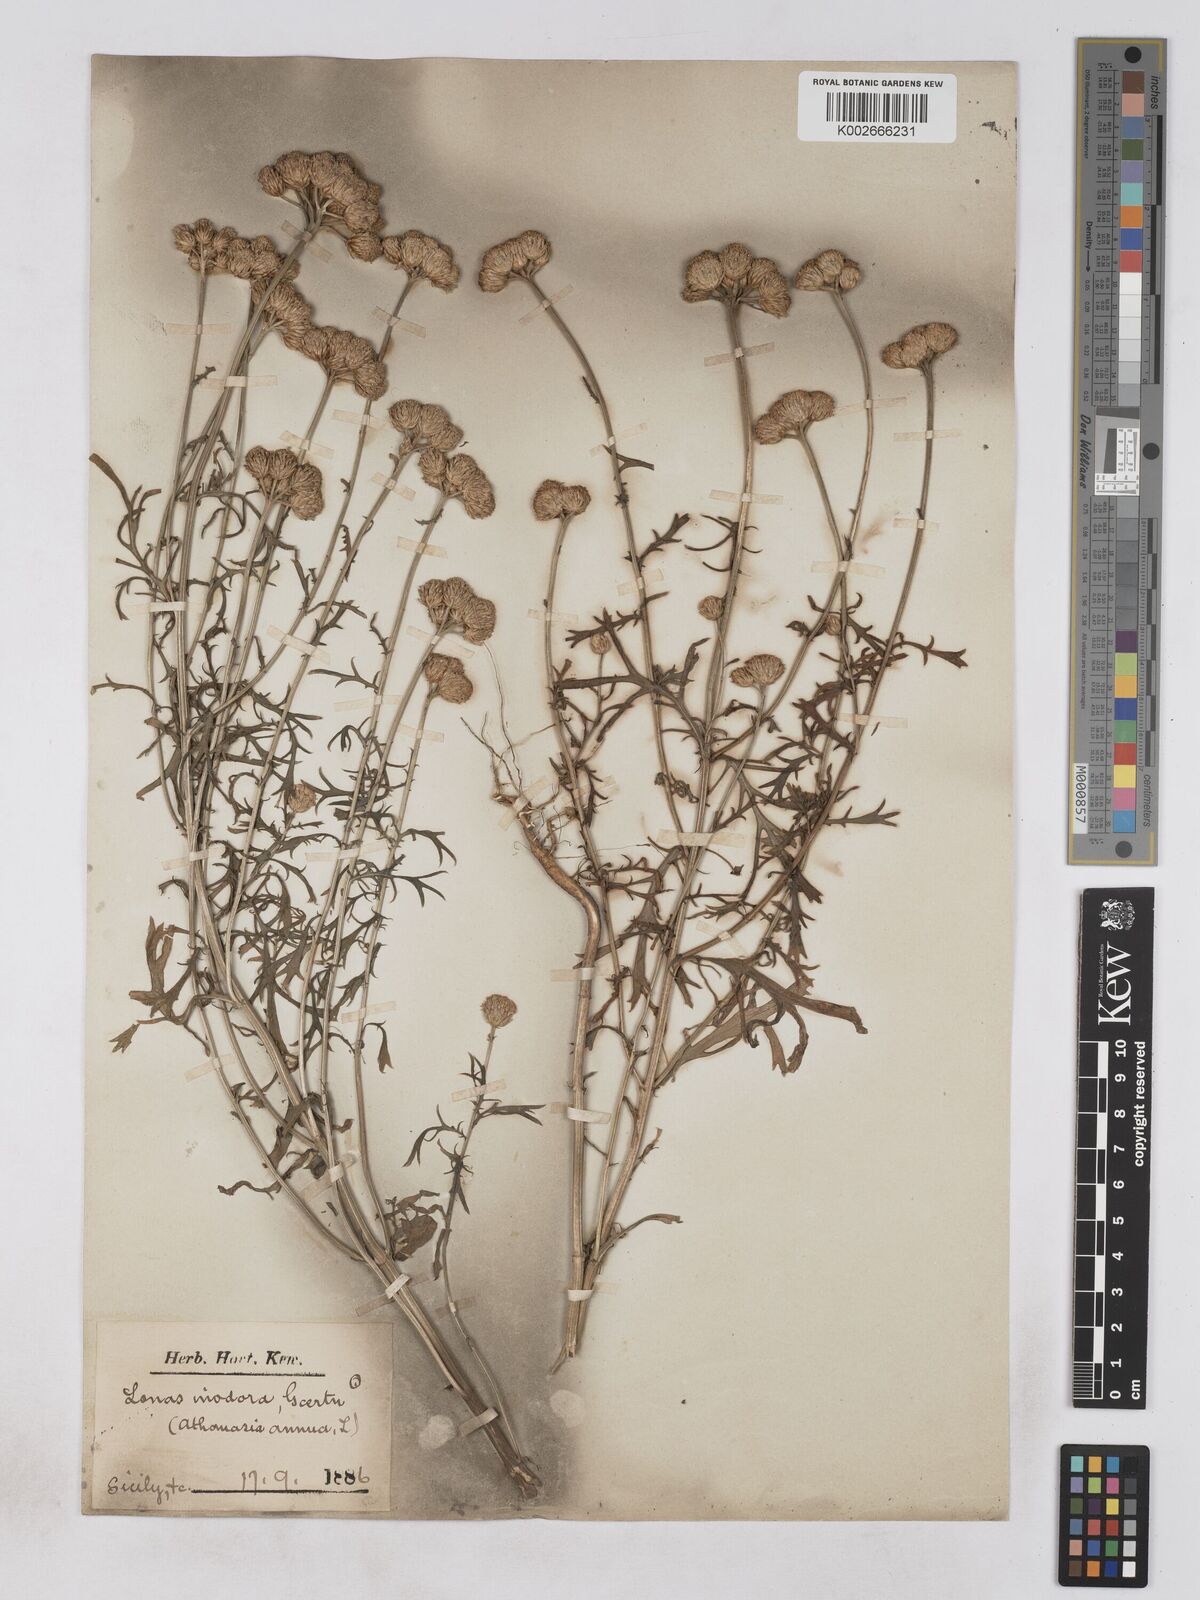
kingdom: Plantae
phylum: Tracheophyta
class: Magnoliopsida
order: Asterales
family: Asteraceae
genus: Lonas
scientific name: Lonas annua
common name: African daisy
